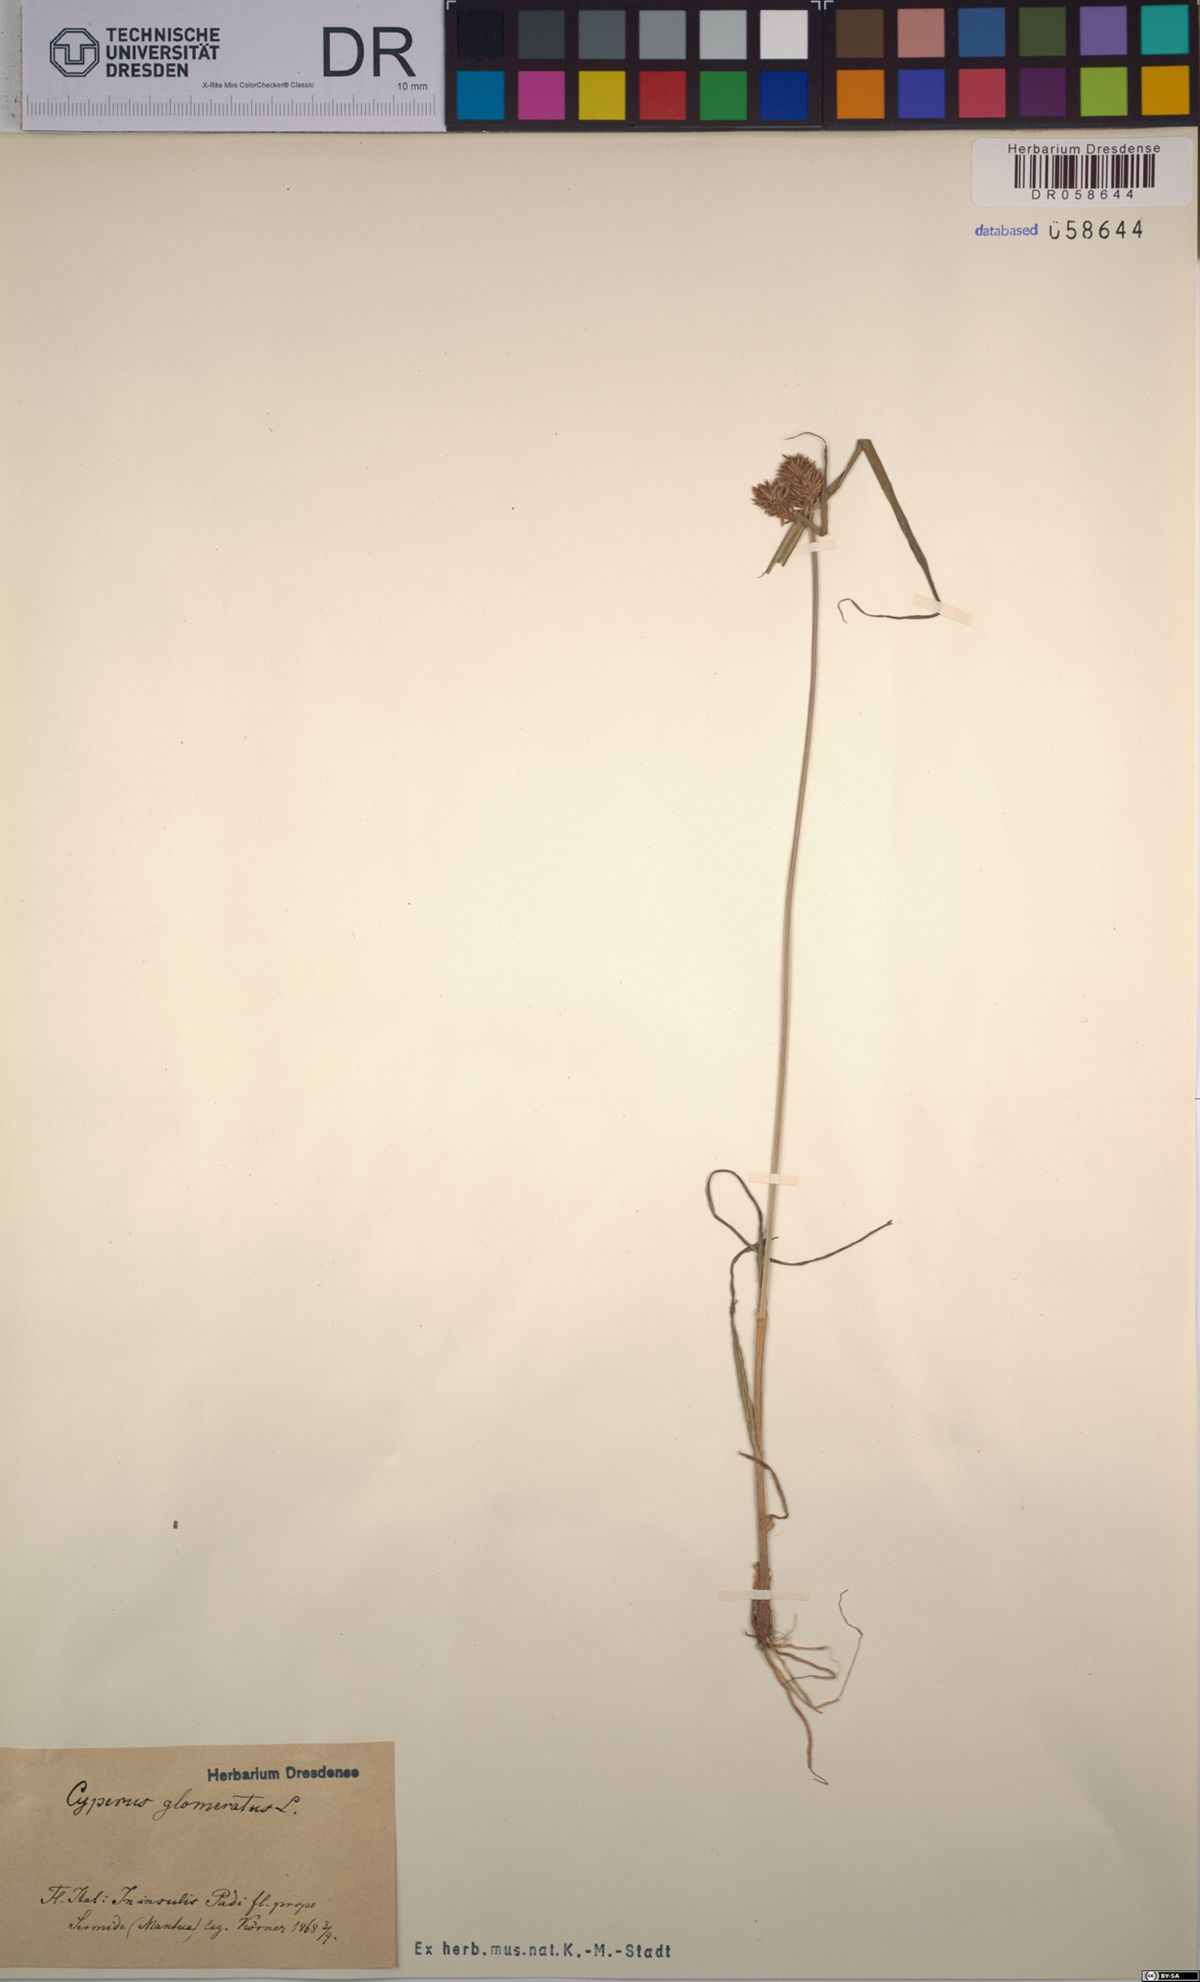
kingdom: Plantae
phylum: Tracheophyta
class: Liliopsida
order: Poales
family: Cyperaceae
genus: Cyperus
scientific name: Cyperus glomeratus
